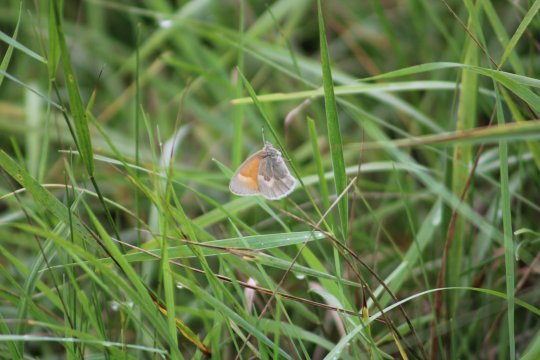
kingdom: Animalia
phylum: Arthropoda
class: Insecta
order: Lepidoptera
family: Nymphalidae
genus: Coenonympha
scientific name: Coenonympha tullia
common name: Large Heath
